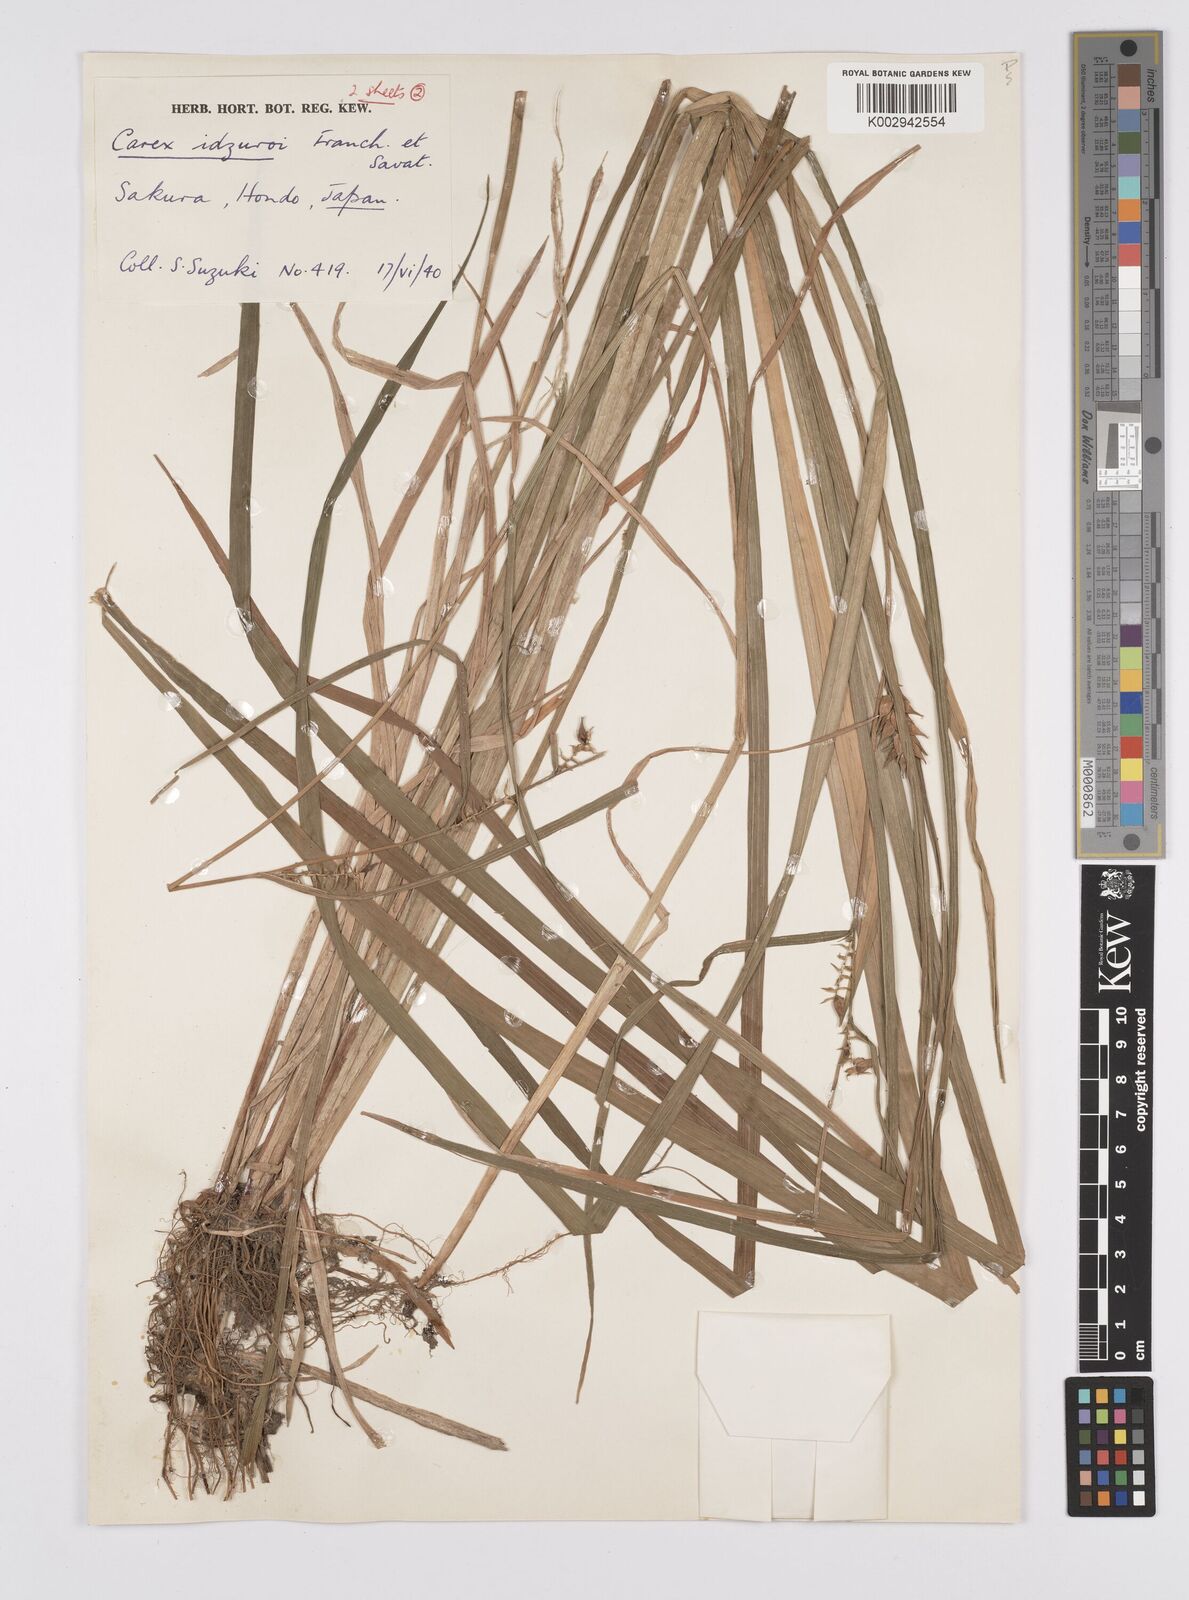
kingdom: Plantae
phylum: Tracheophyta
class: Liliopsida
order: Poales
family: Cyperaceae
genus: Carex
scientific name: Carex idzuroei
